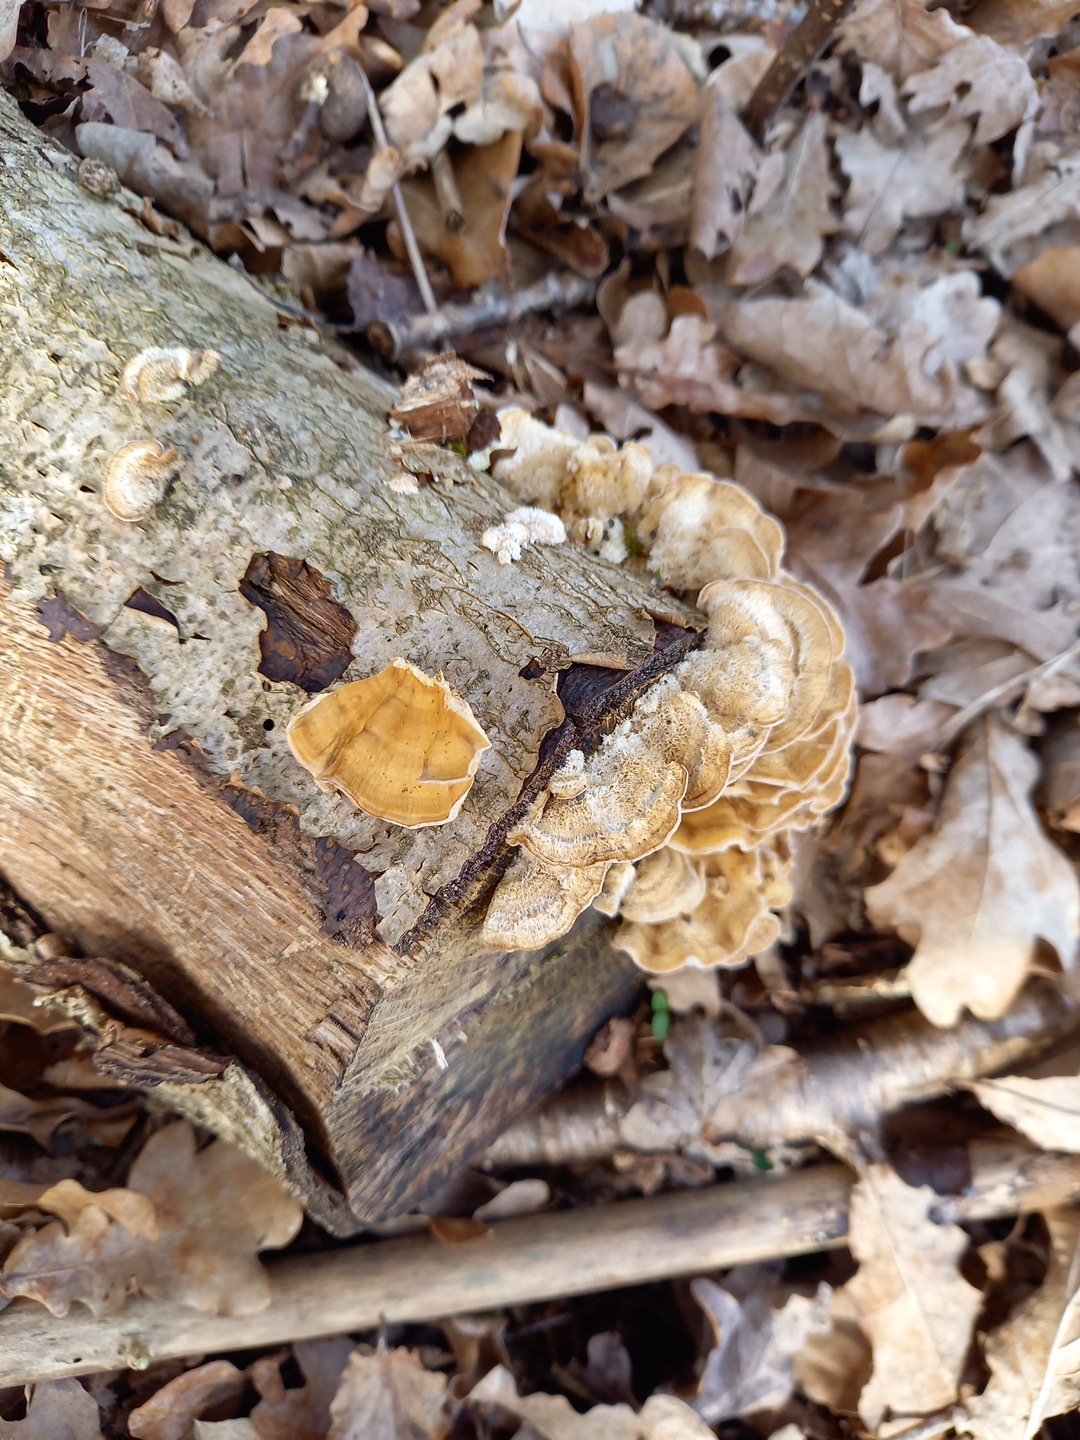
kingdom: Fungi
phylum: Basidiomycota
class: Agaricomycetes
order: Russulales
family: Stereaceae
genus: Stereum
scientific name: Stereum hirsutum
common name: håret lædersvamp
